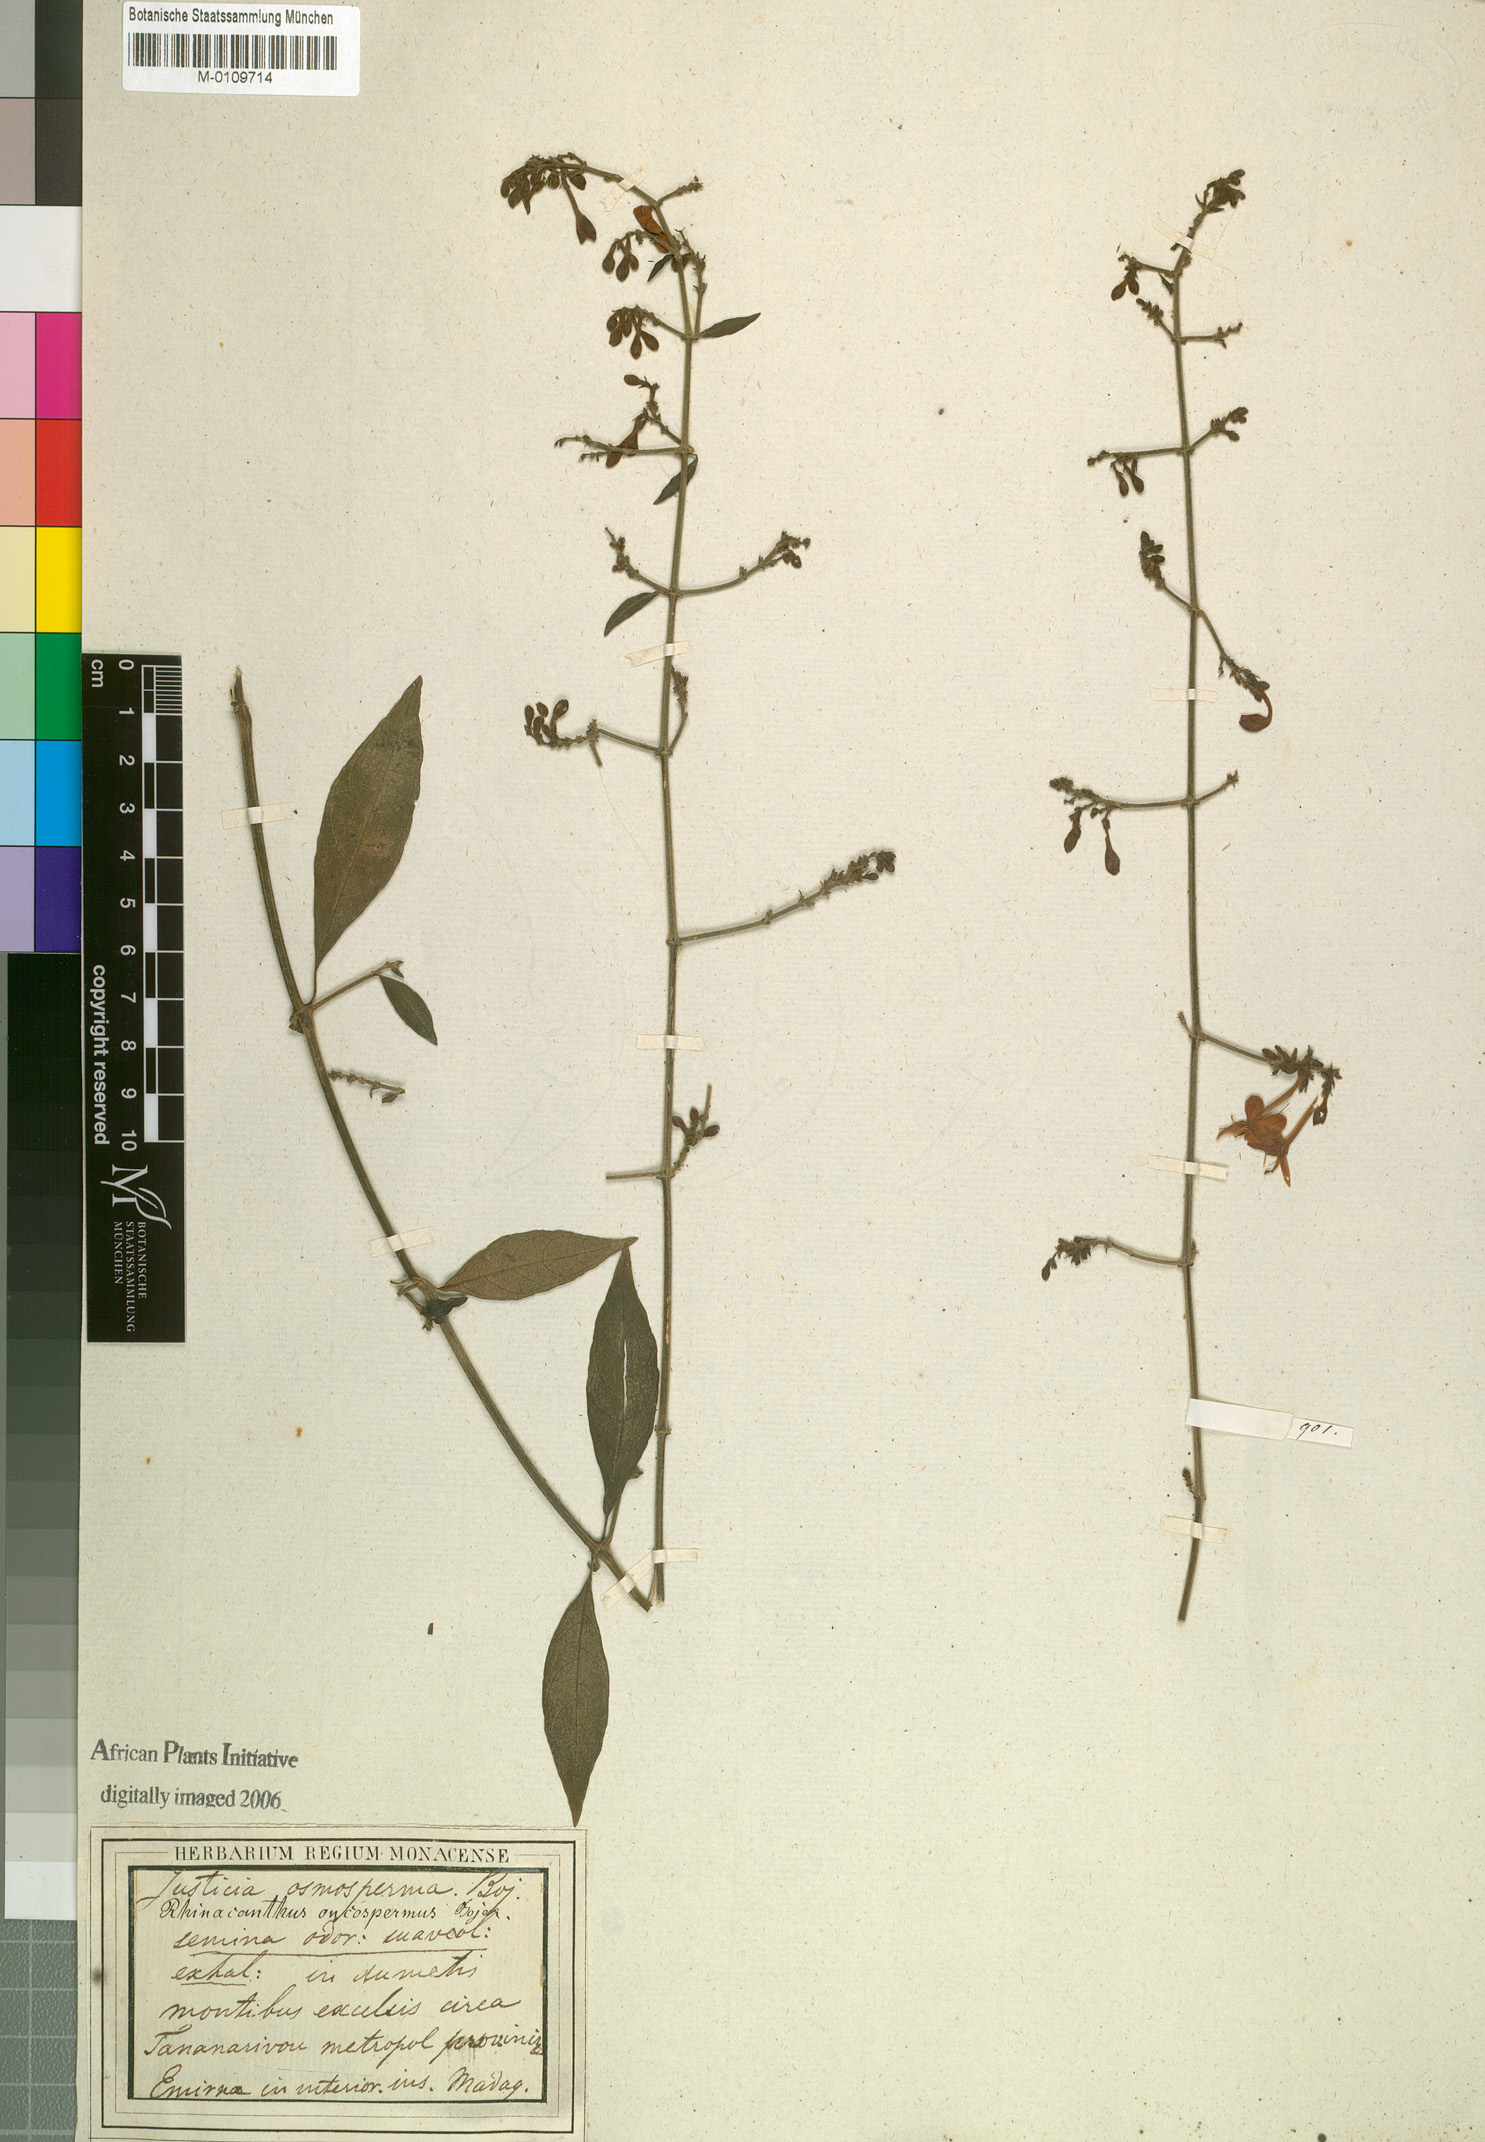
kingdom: Plantae
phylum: Tracheophyta
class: Magnoliopsida
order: Lamiales
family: Acanthaceae
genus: Rhinacanthus
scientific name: Rhinacanthus osmospermus
